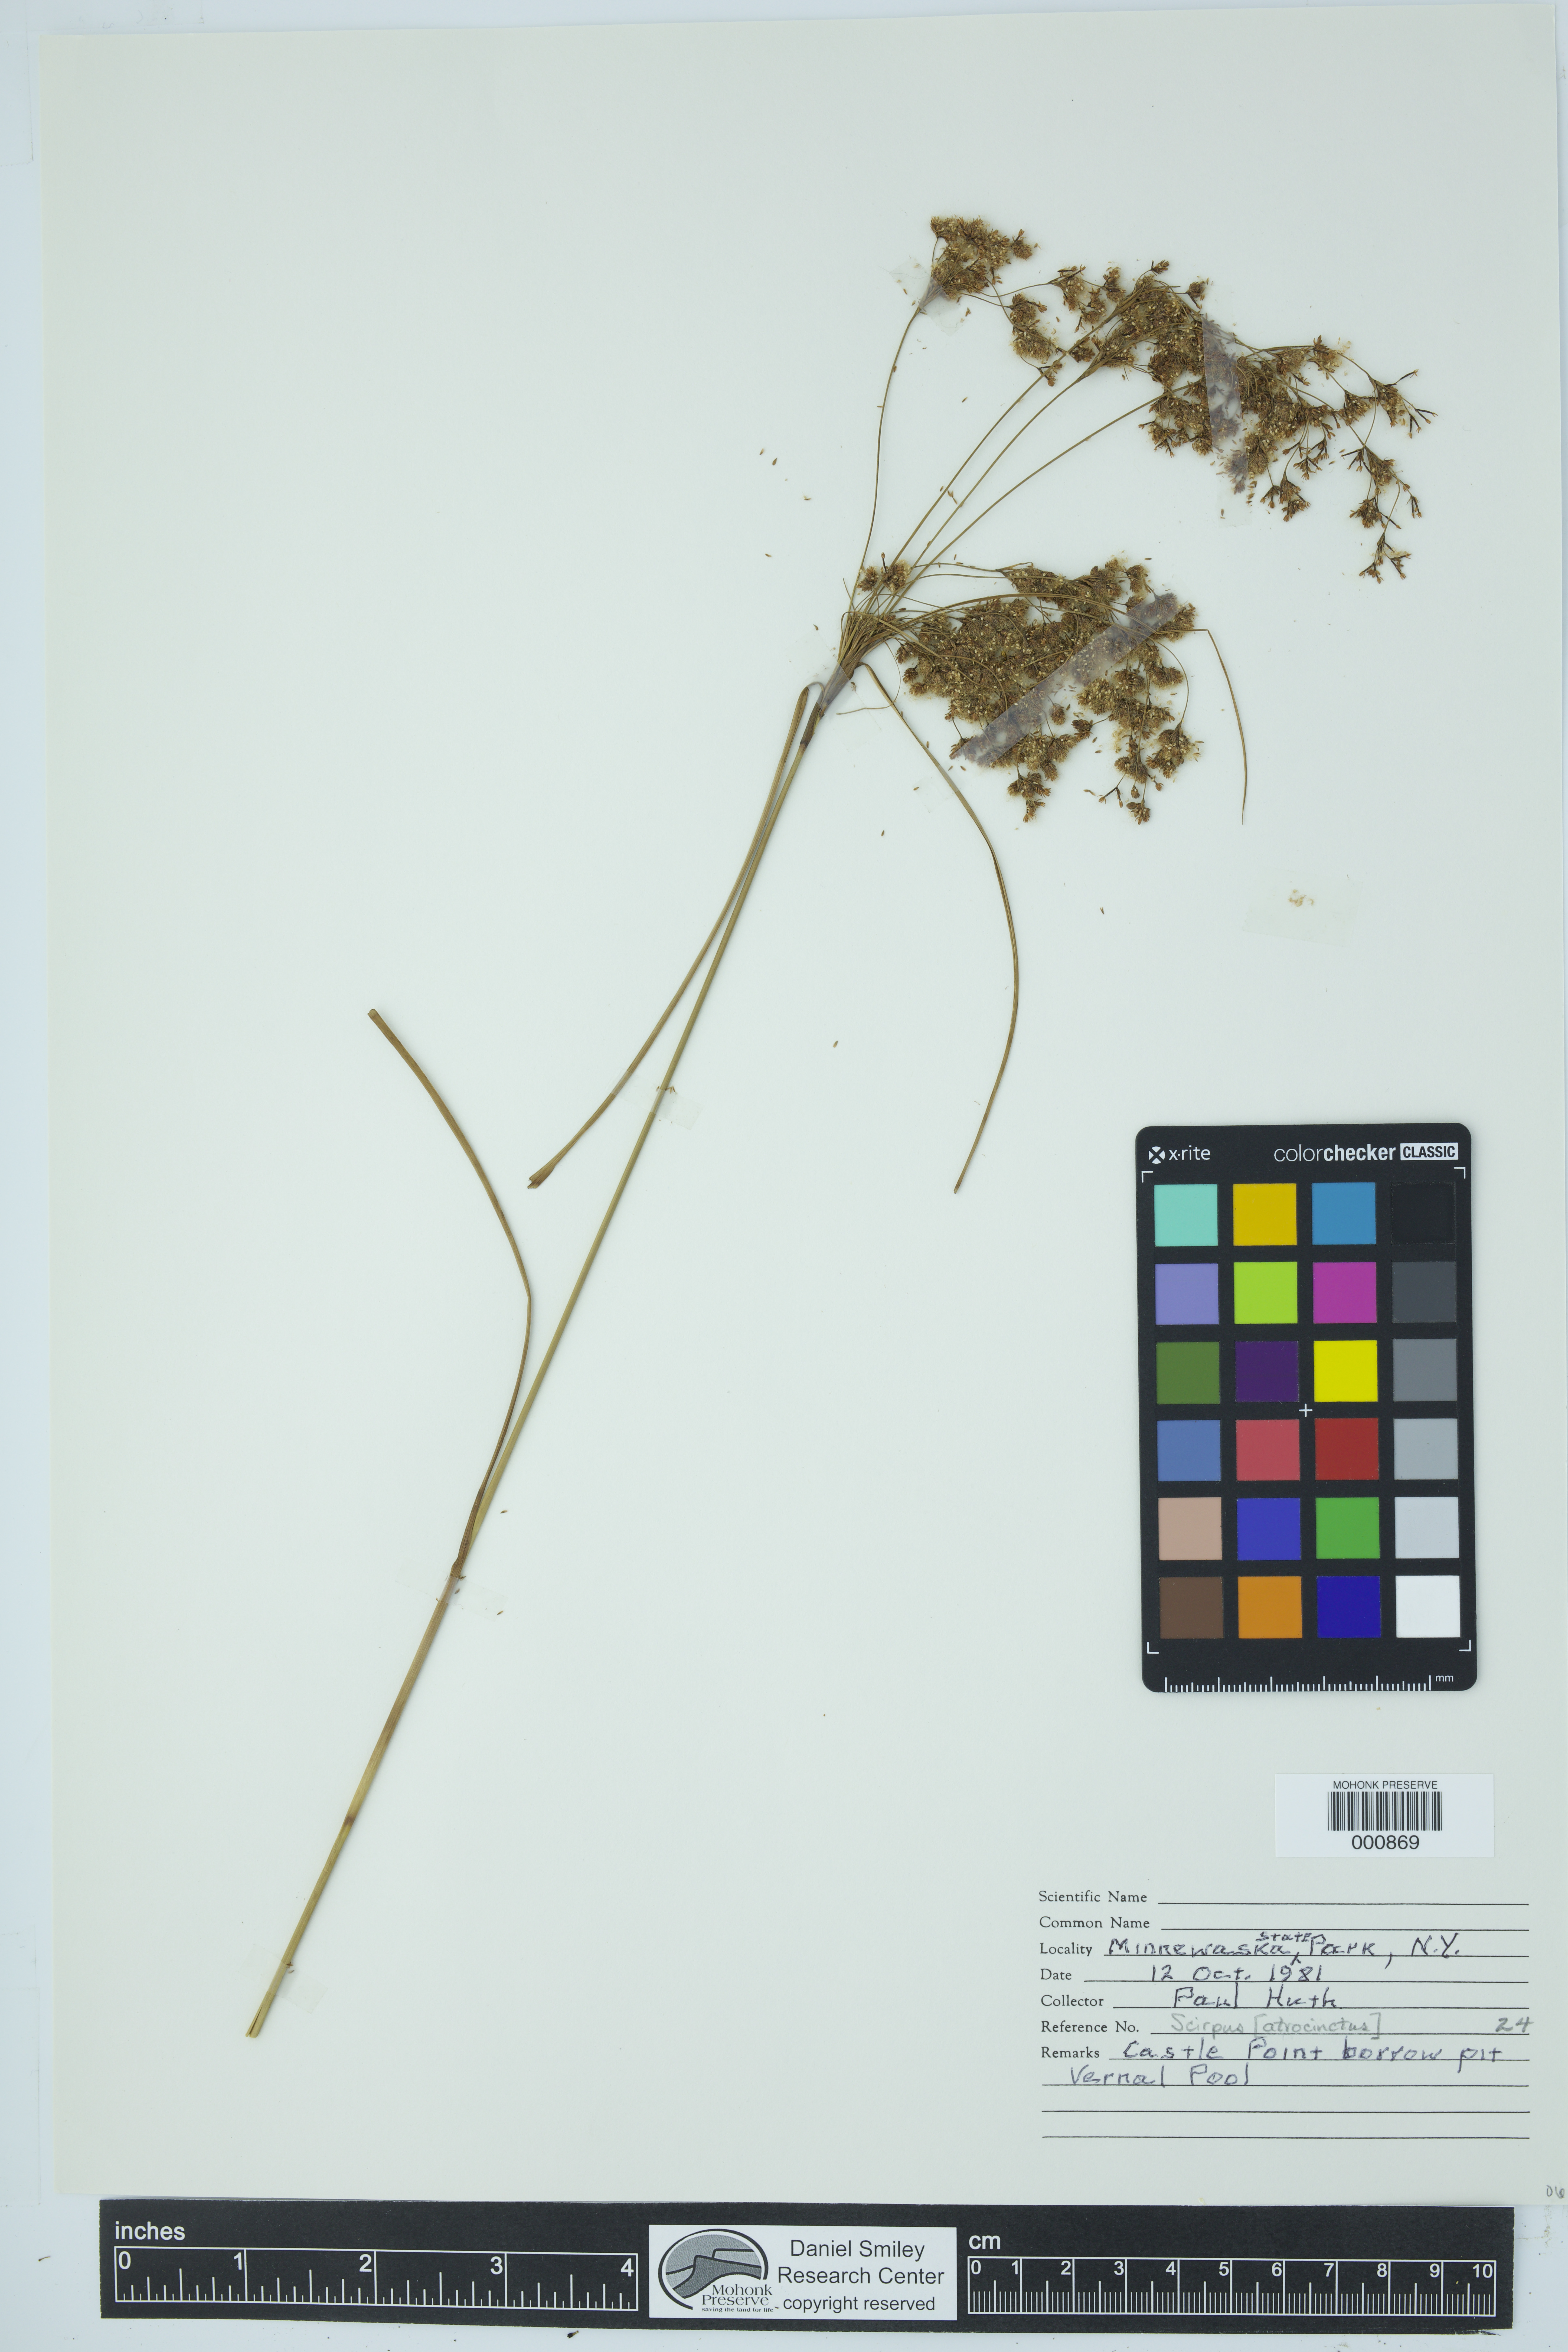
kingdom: Plantae
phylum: Tracheophyta
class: Liliopsida
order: Poales
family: Cyperaceae
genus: Scirpus
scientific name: Scirpus atrocinctus
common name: Black-girdled bulrush
